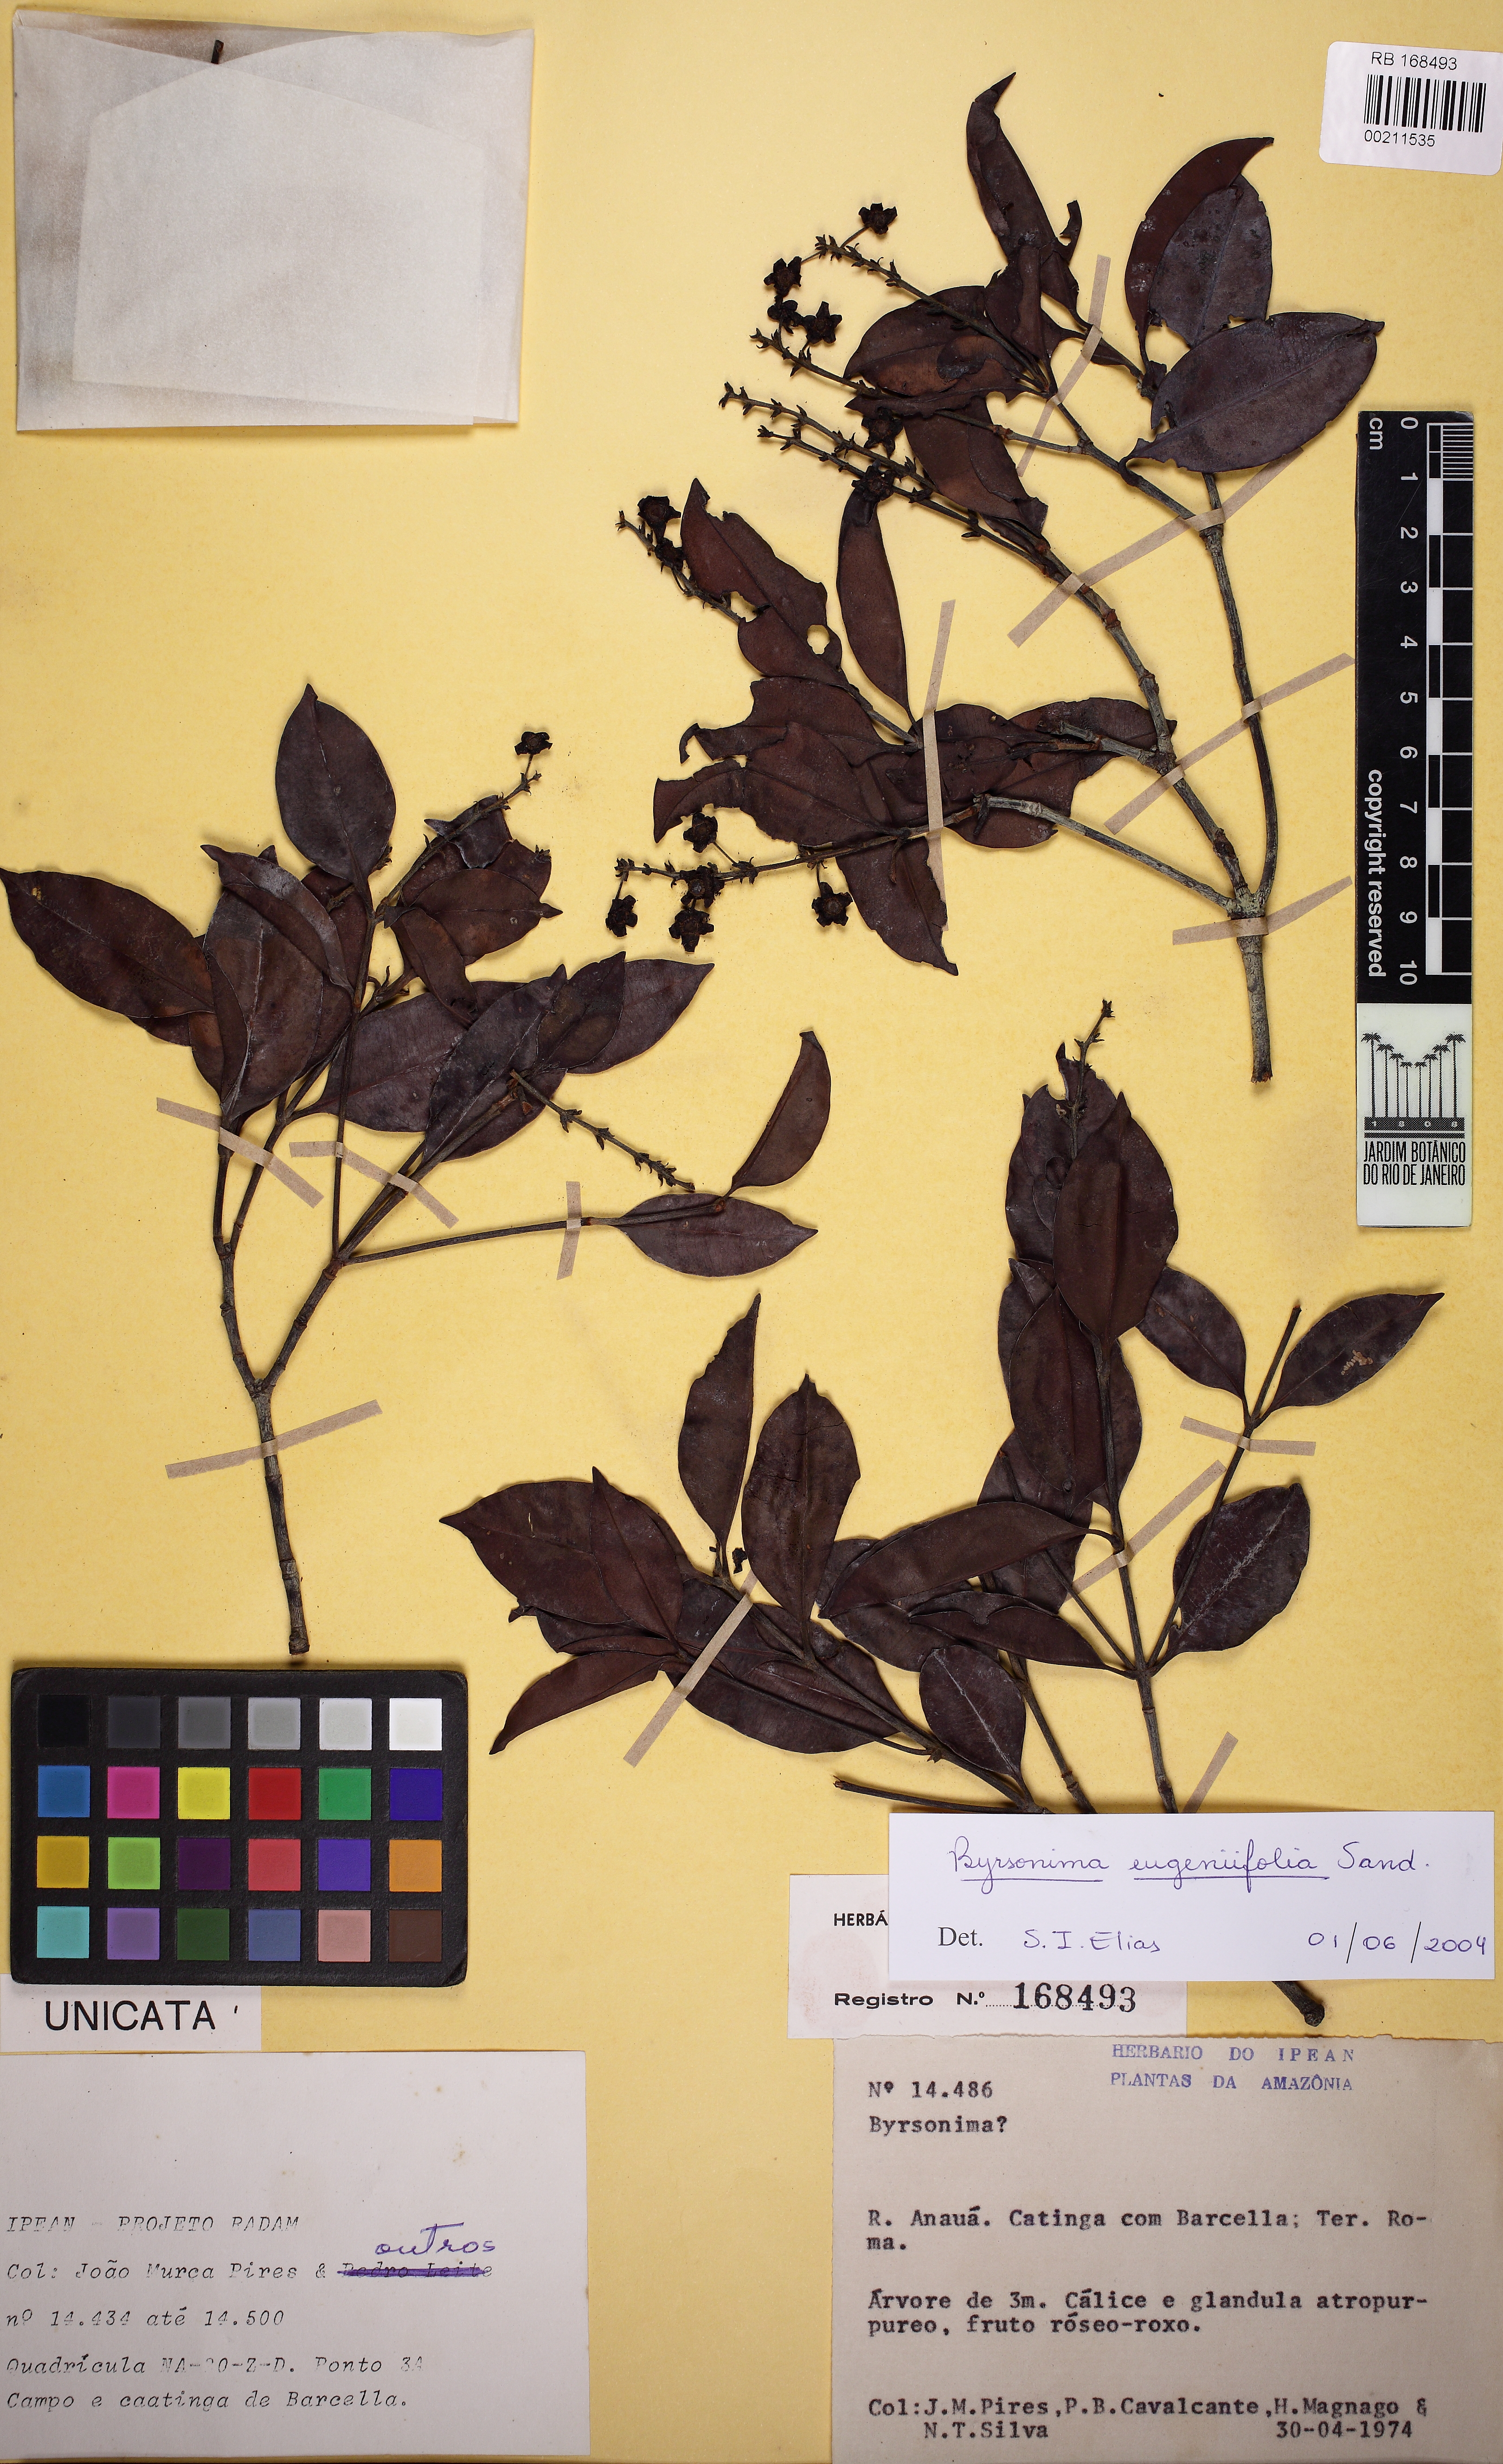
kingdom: Plantae
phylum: Tracheophyta
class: Magnoliopsida
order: Malpighiales
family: Malpighiaceae
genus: Byrsonima
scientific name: Byrsonima eugeniifolia
